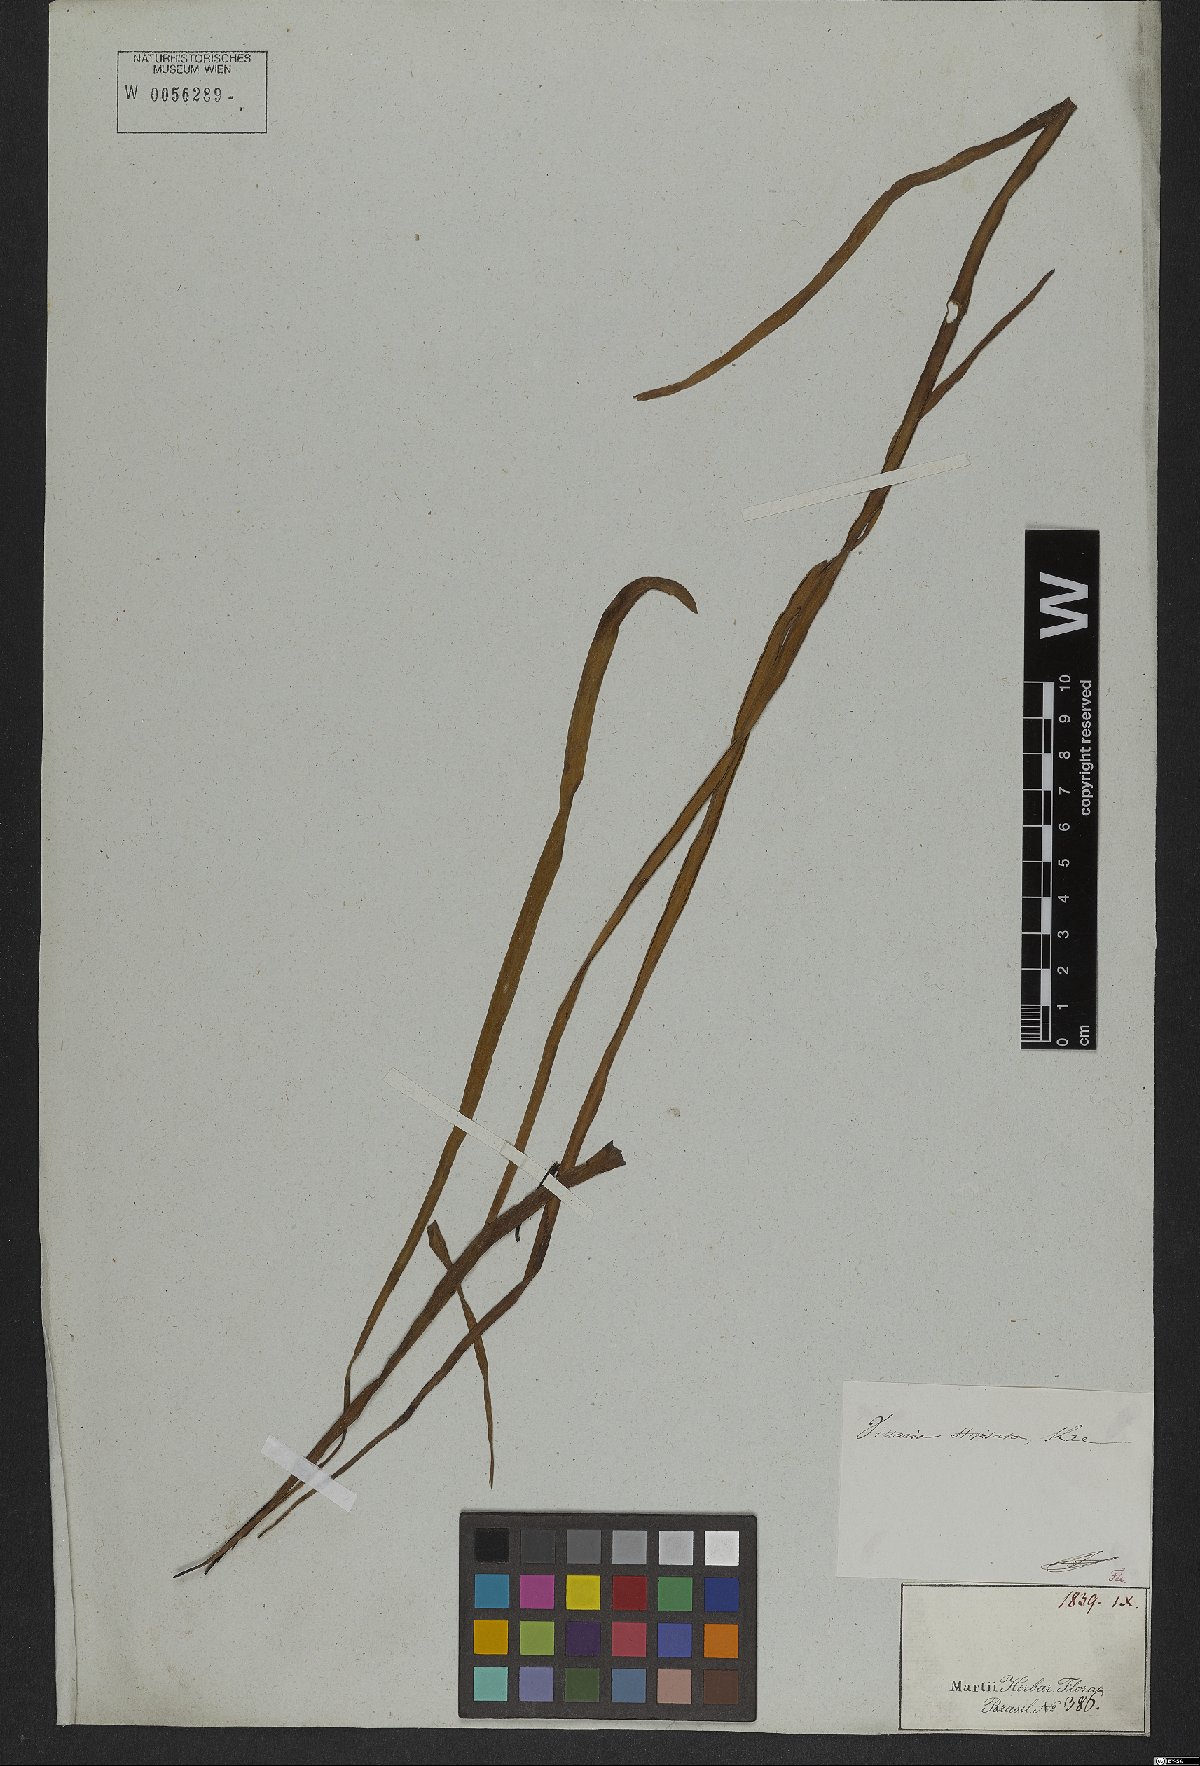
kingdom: Plantae
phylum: Tracheophyta
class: Polypodiopsida
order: Polypodiales
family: Pteridaceae
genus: Radiovittaria
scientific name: Radiovittaria stipitata
